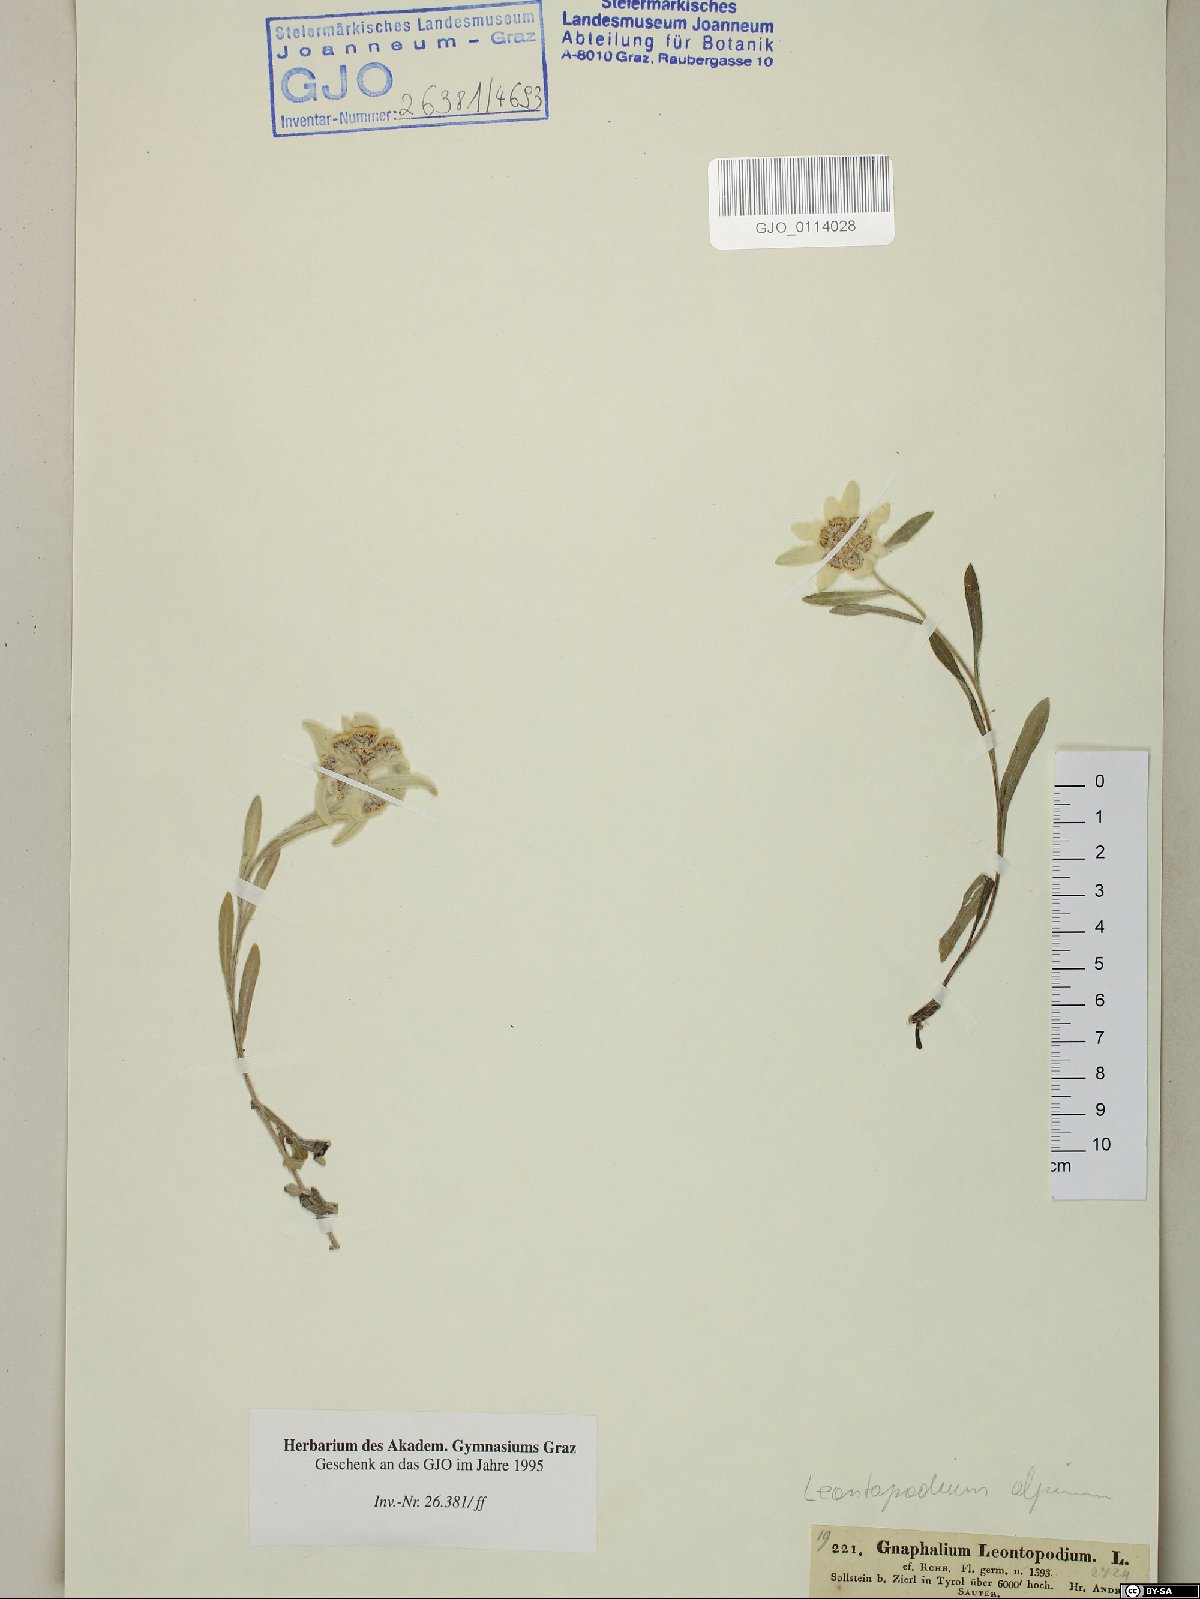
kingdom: Plantae
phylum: Tracheophyta
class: Magnoliopsida
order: Asterales
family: Asteraceae
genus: Leontopodium
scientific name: Leontopodium nivale
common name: Edelweiss
